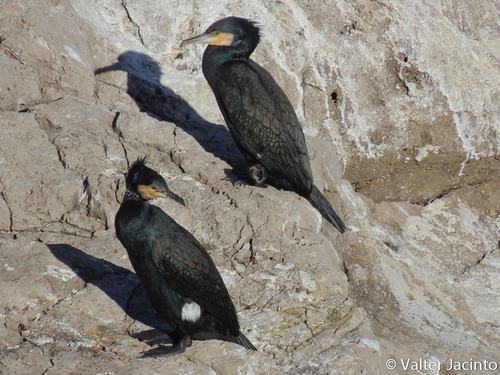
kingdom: Animalia
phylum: Chordata
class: Aves
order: Suliformes
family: Phalacrocoracidae
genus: Phalacrocorax
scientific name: Phalacrocorax carbo
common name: Great cormorant
